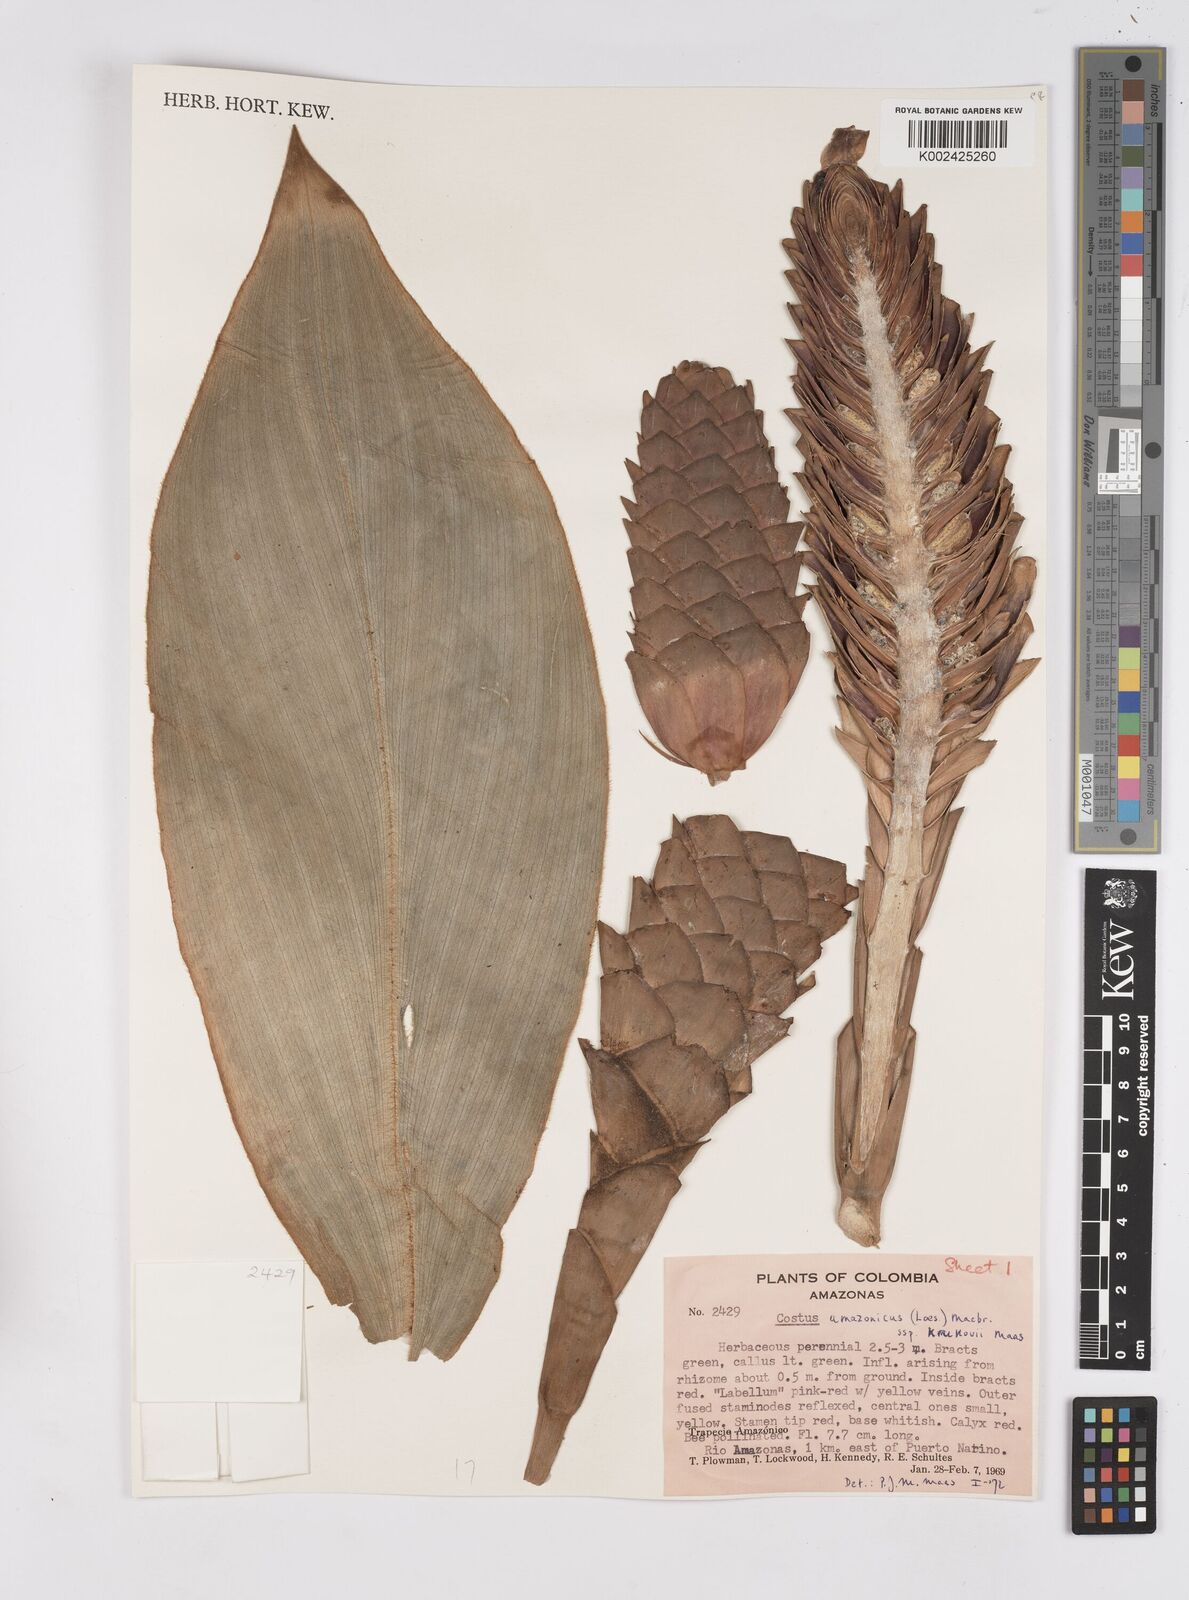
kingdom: Plantae
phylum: Tracheophyta
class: Liliopsida
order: Zingiberales
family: Costaceae
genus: Costus
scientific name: Costus amazonicus
